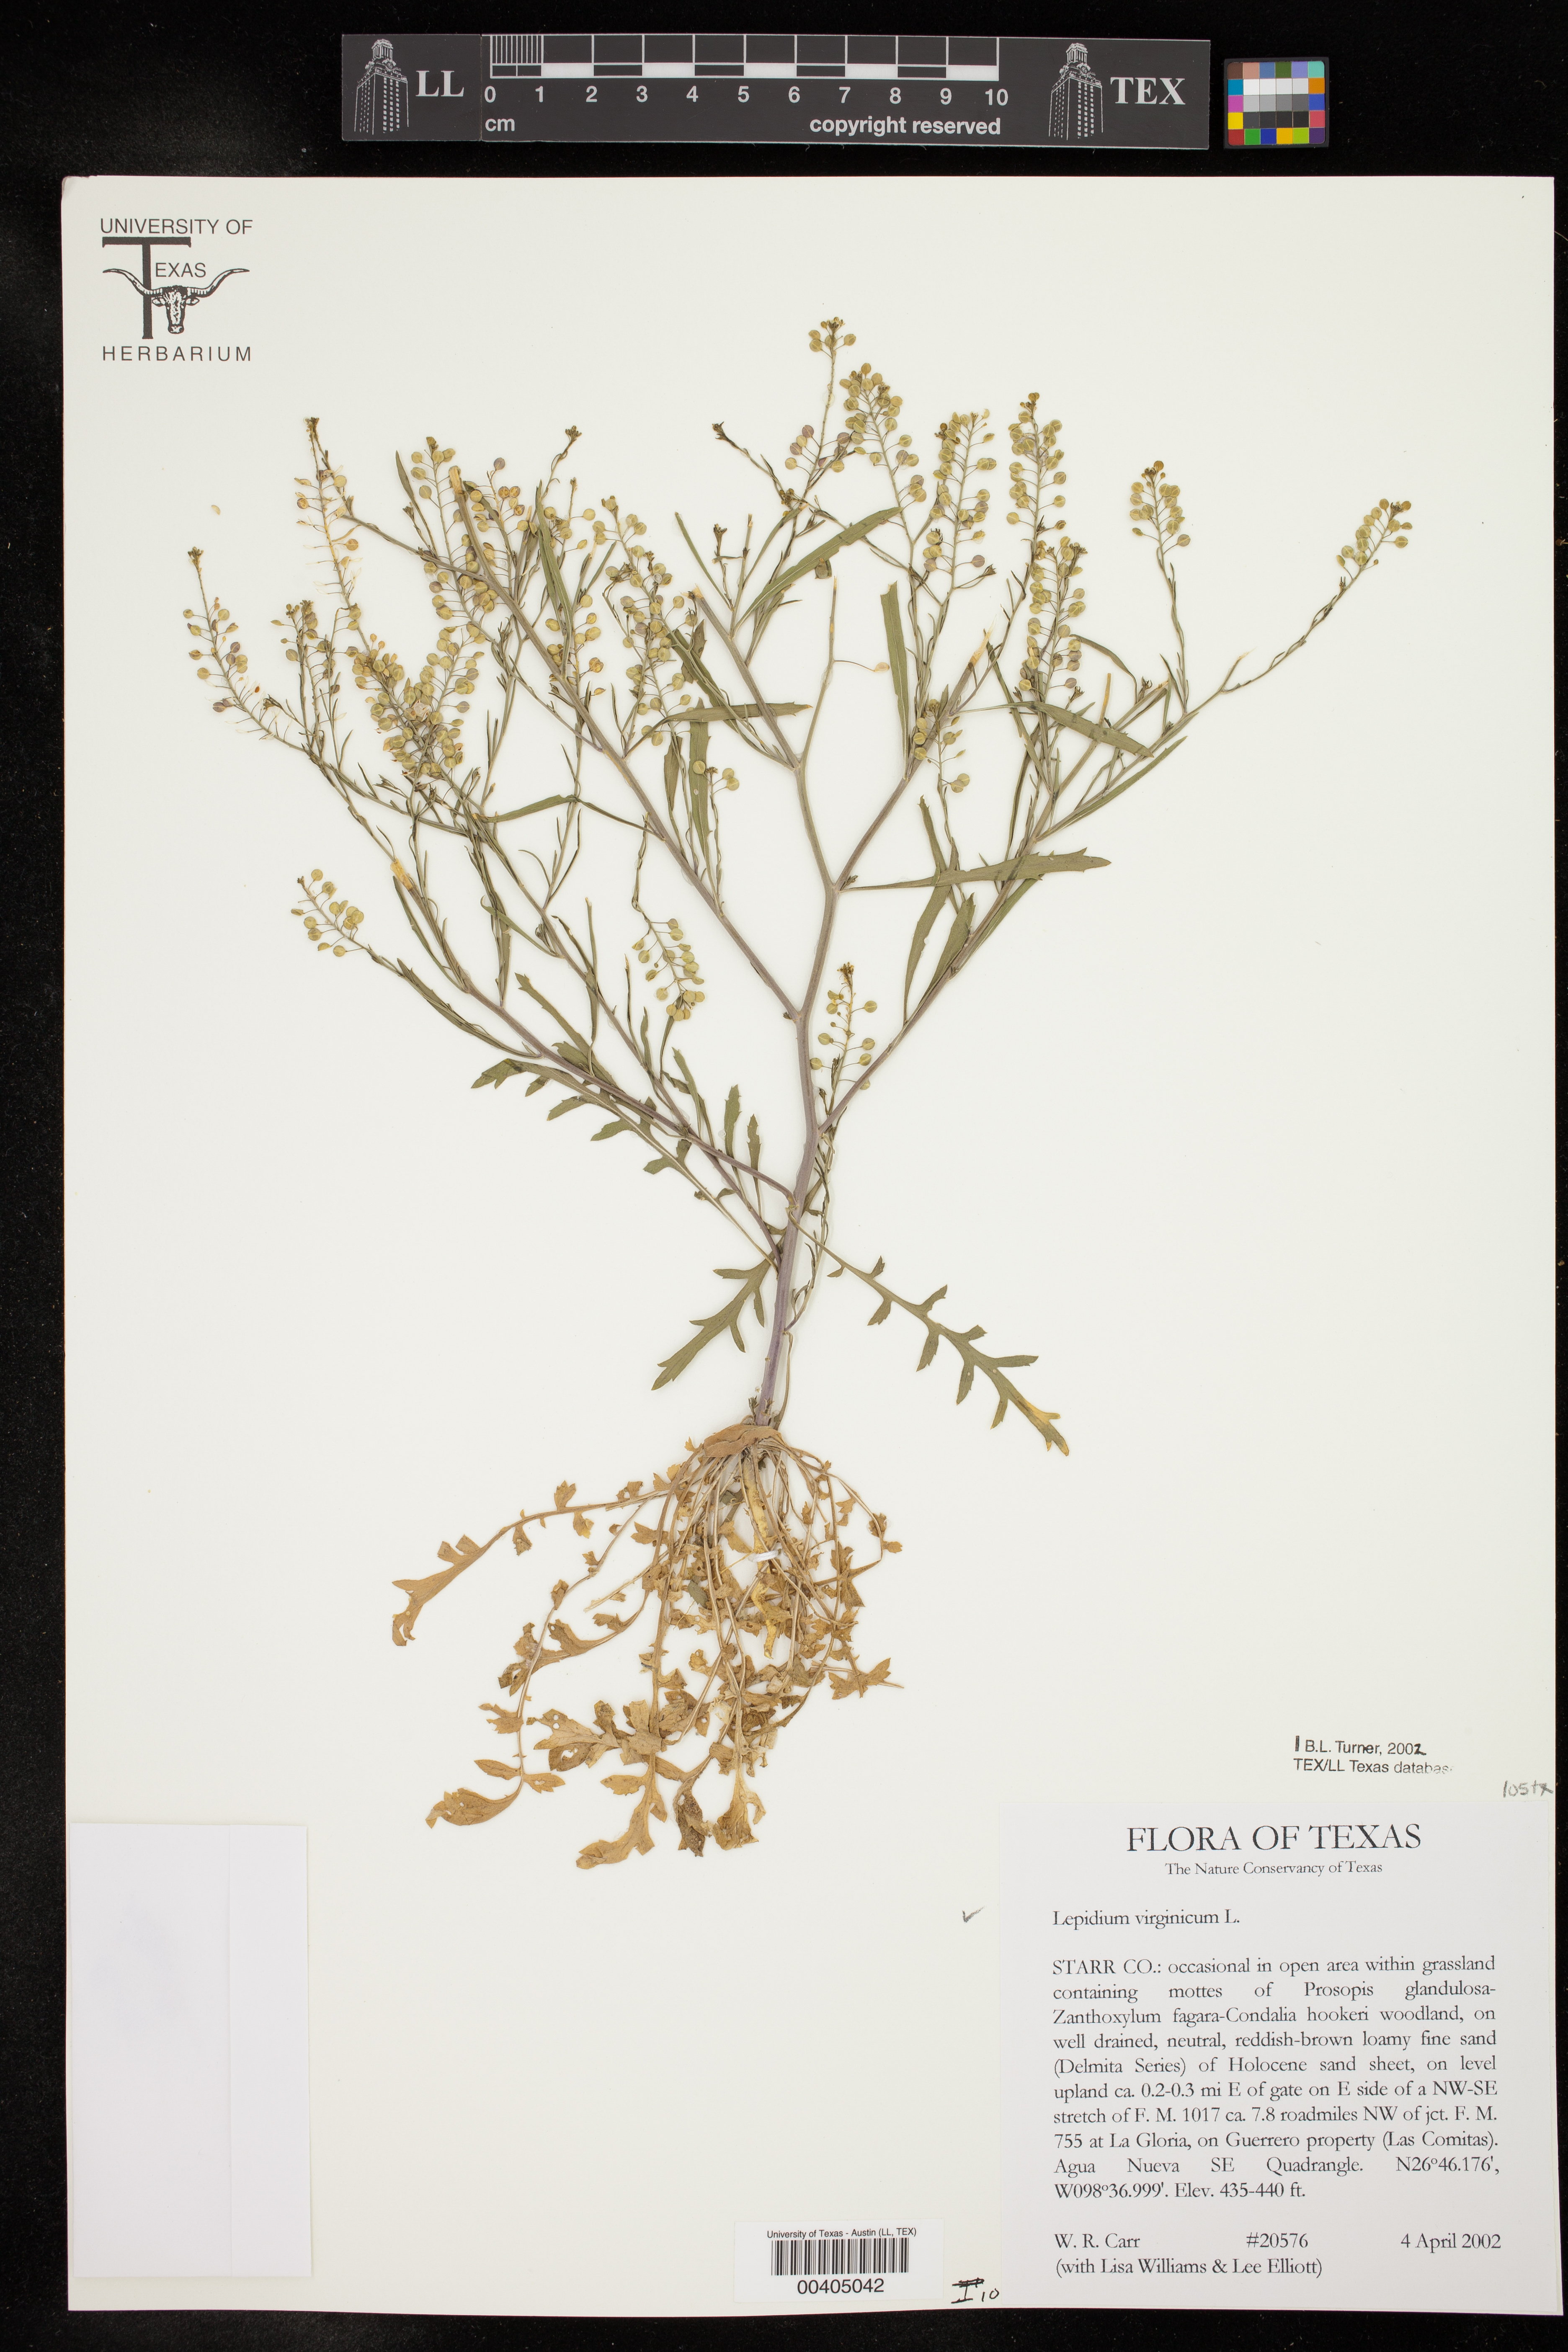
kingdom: Plantae
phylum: Tracheophyta
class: Magnoliopsida
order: Brassicales
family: Brassicaceae
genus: Lepidium
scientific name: Lepidium virginicum
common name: Least pepperwort
